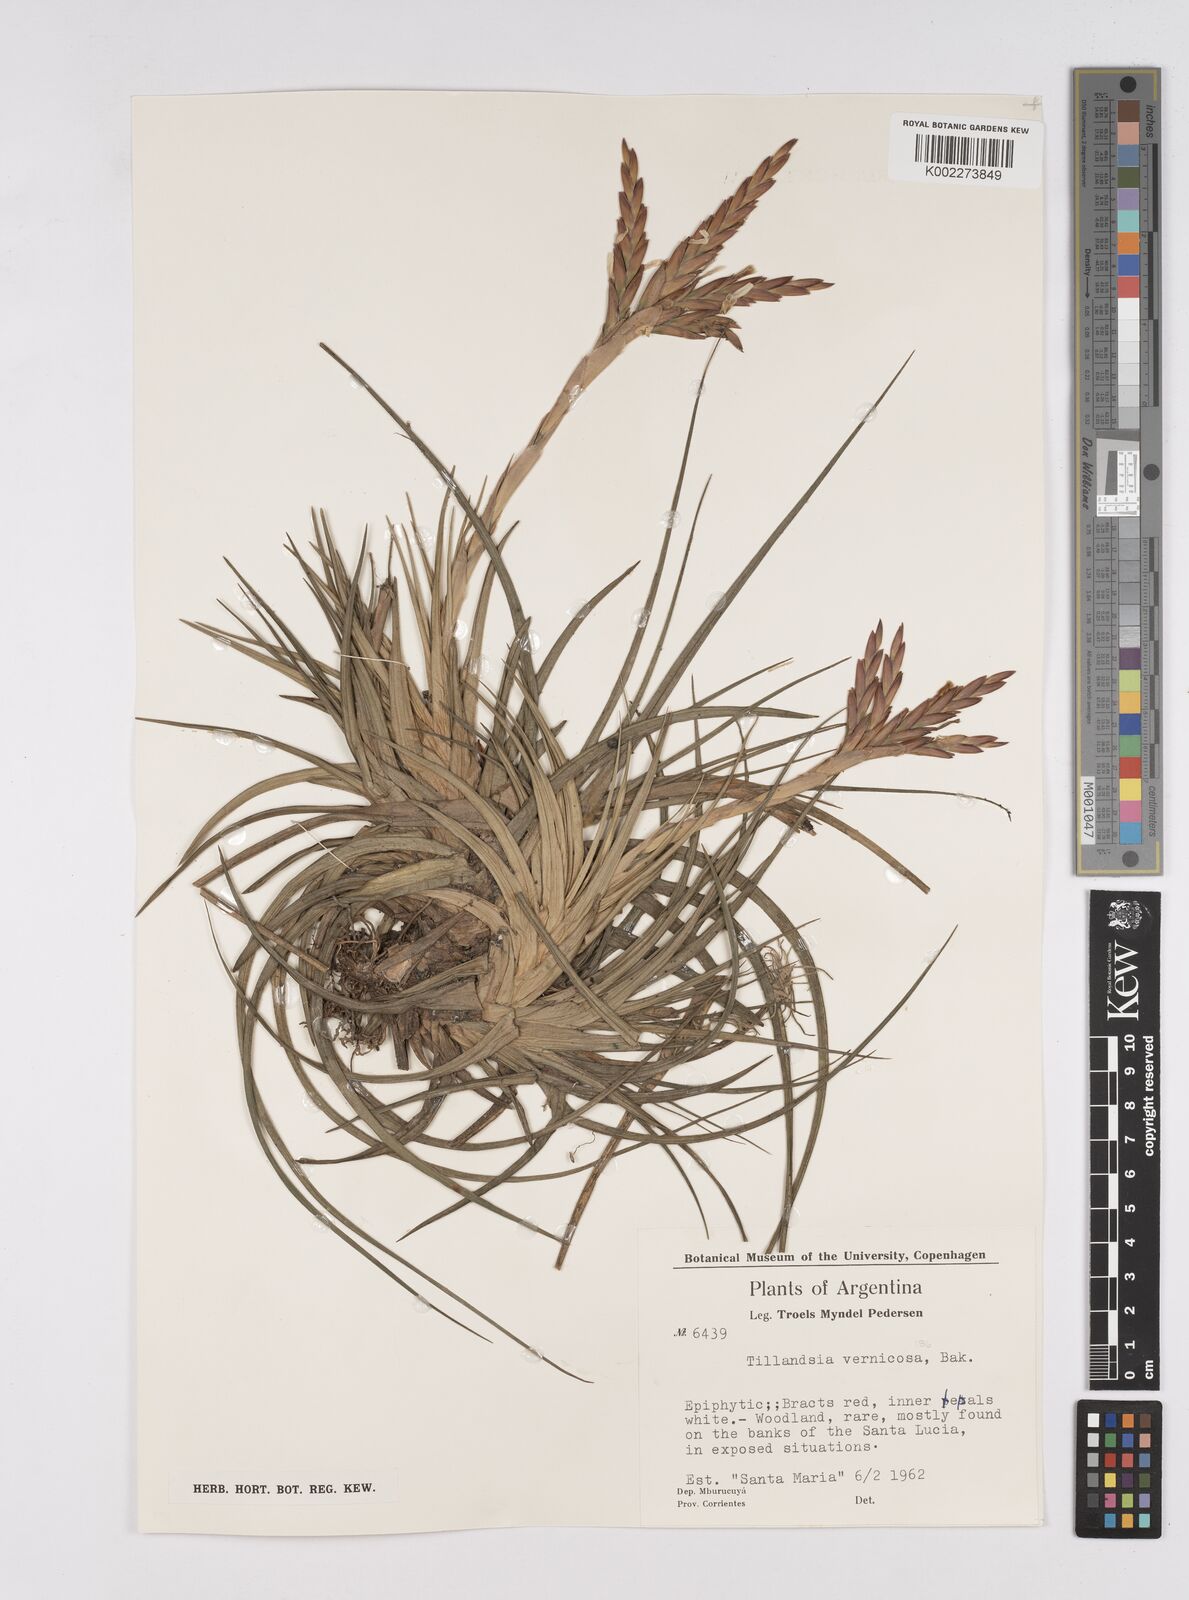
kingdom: Plantae
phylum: Tracheophyta
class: Liliopsida
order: Poales
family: Bromeliaceae
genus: Tillandsia
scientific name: Tillandsia vernicosa
